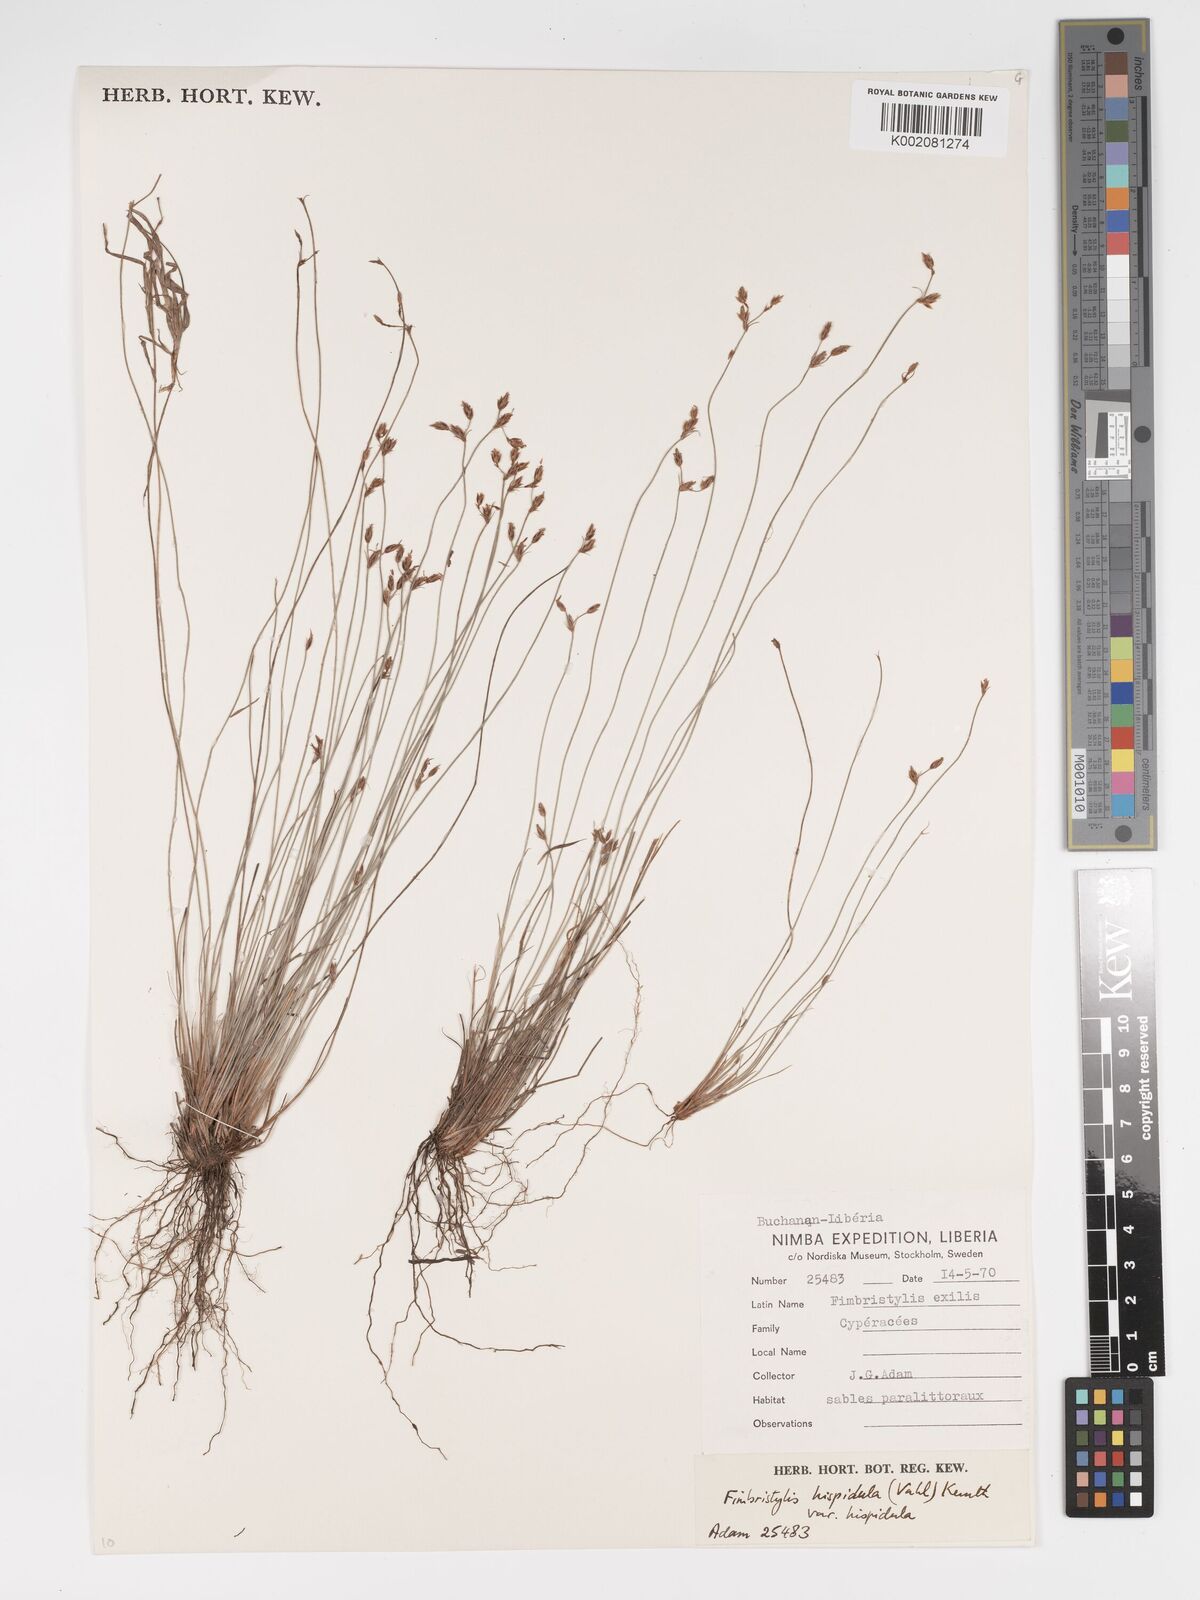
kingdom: Plantae
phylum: Tracheophyta
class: Liliopsida
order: Poales
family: Cyperaceae
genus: Bulbostylis
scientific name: Bulbostylis hispidula
